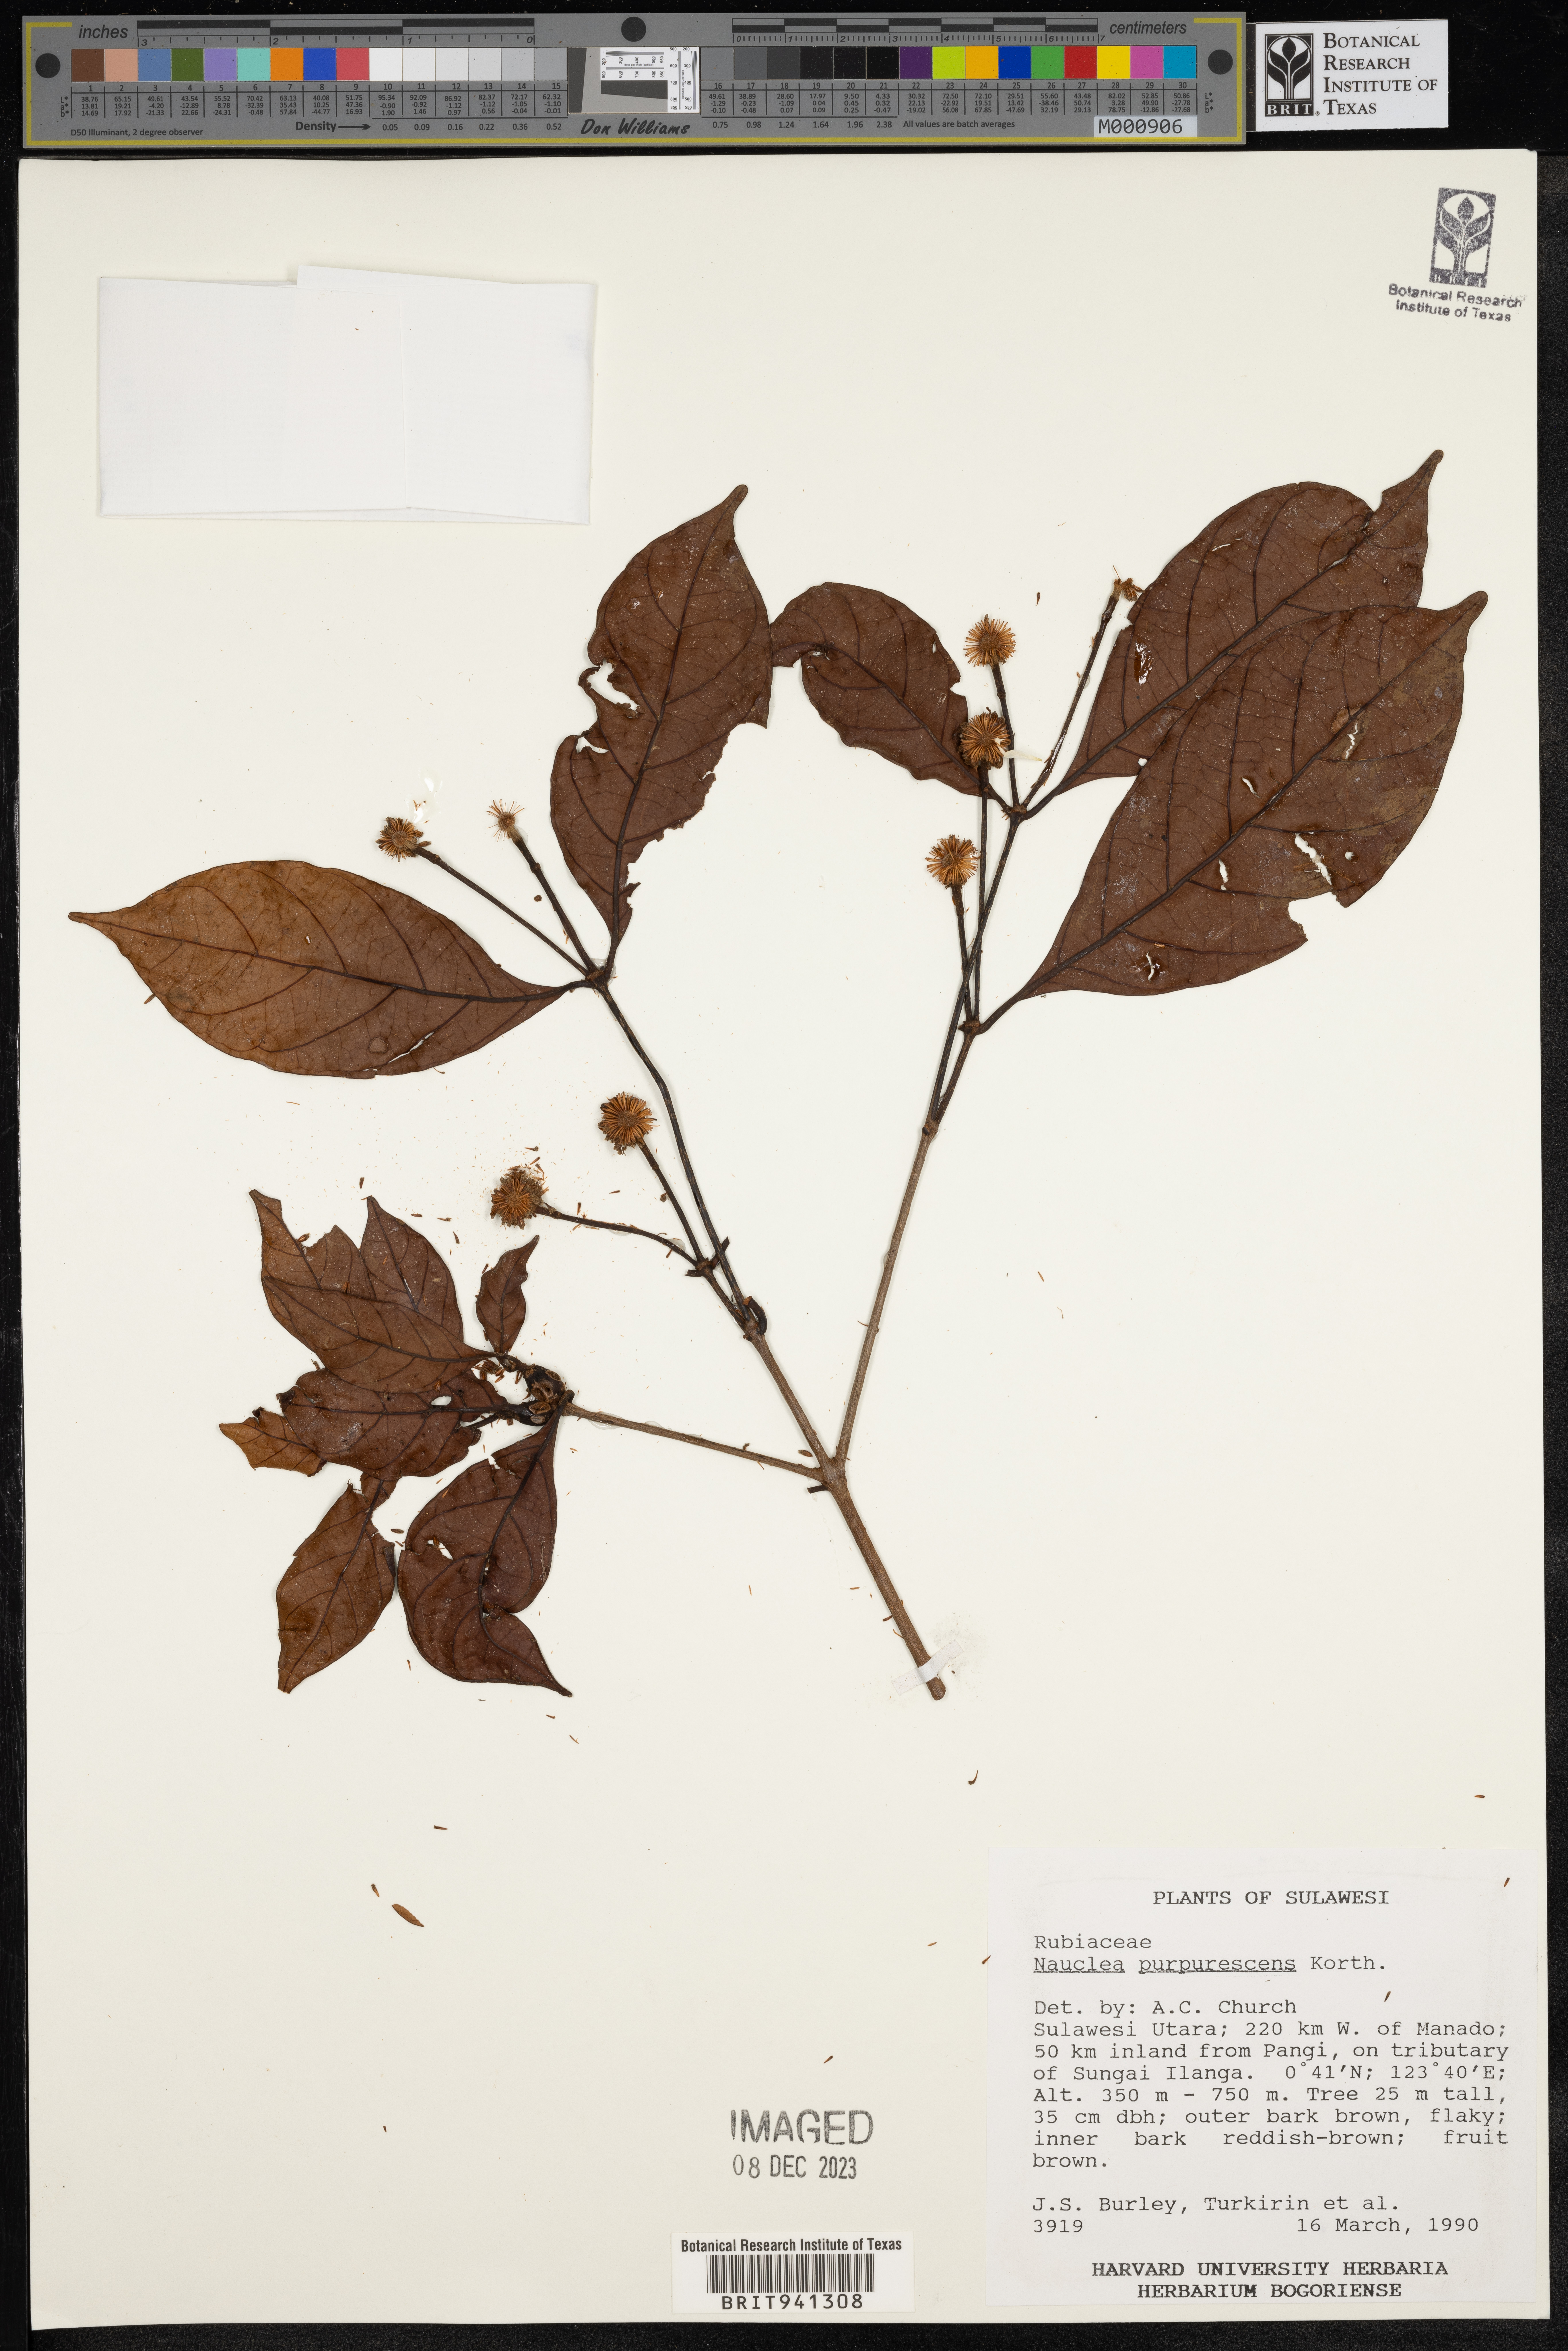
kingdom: Plantae
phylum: Tracheophyta
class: Magnoliopsida
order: Gentianales
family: Rubiaceae
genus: Nauclea
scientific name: Nauclea
